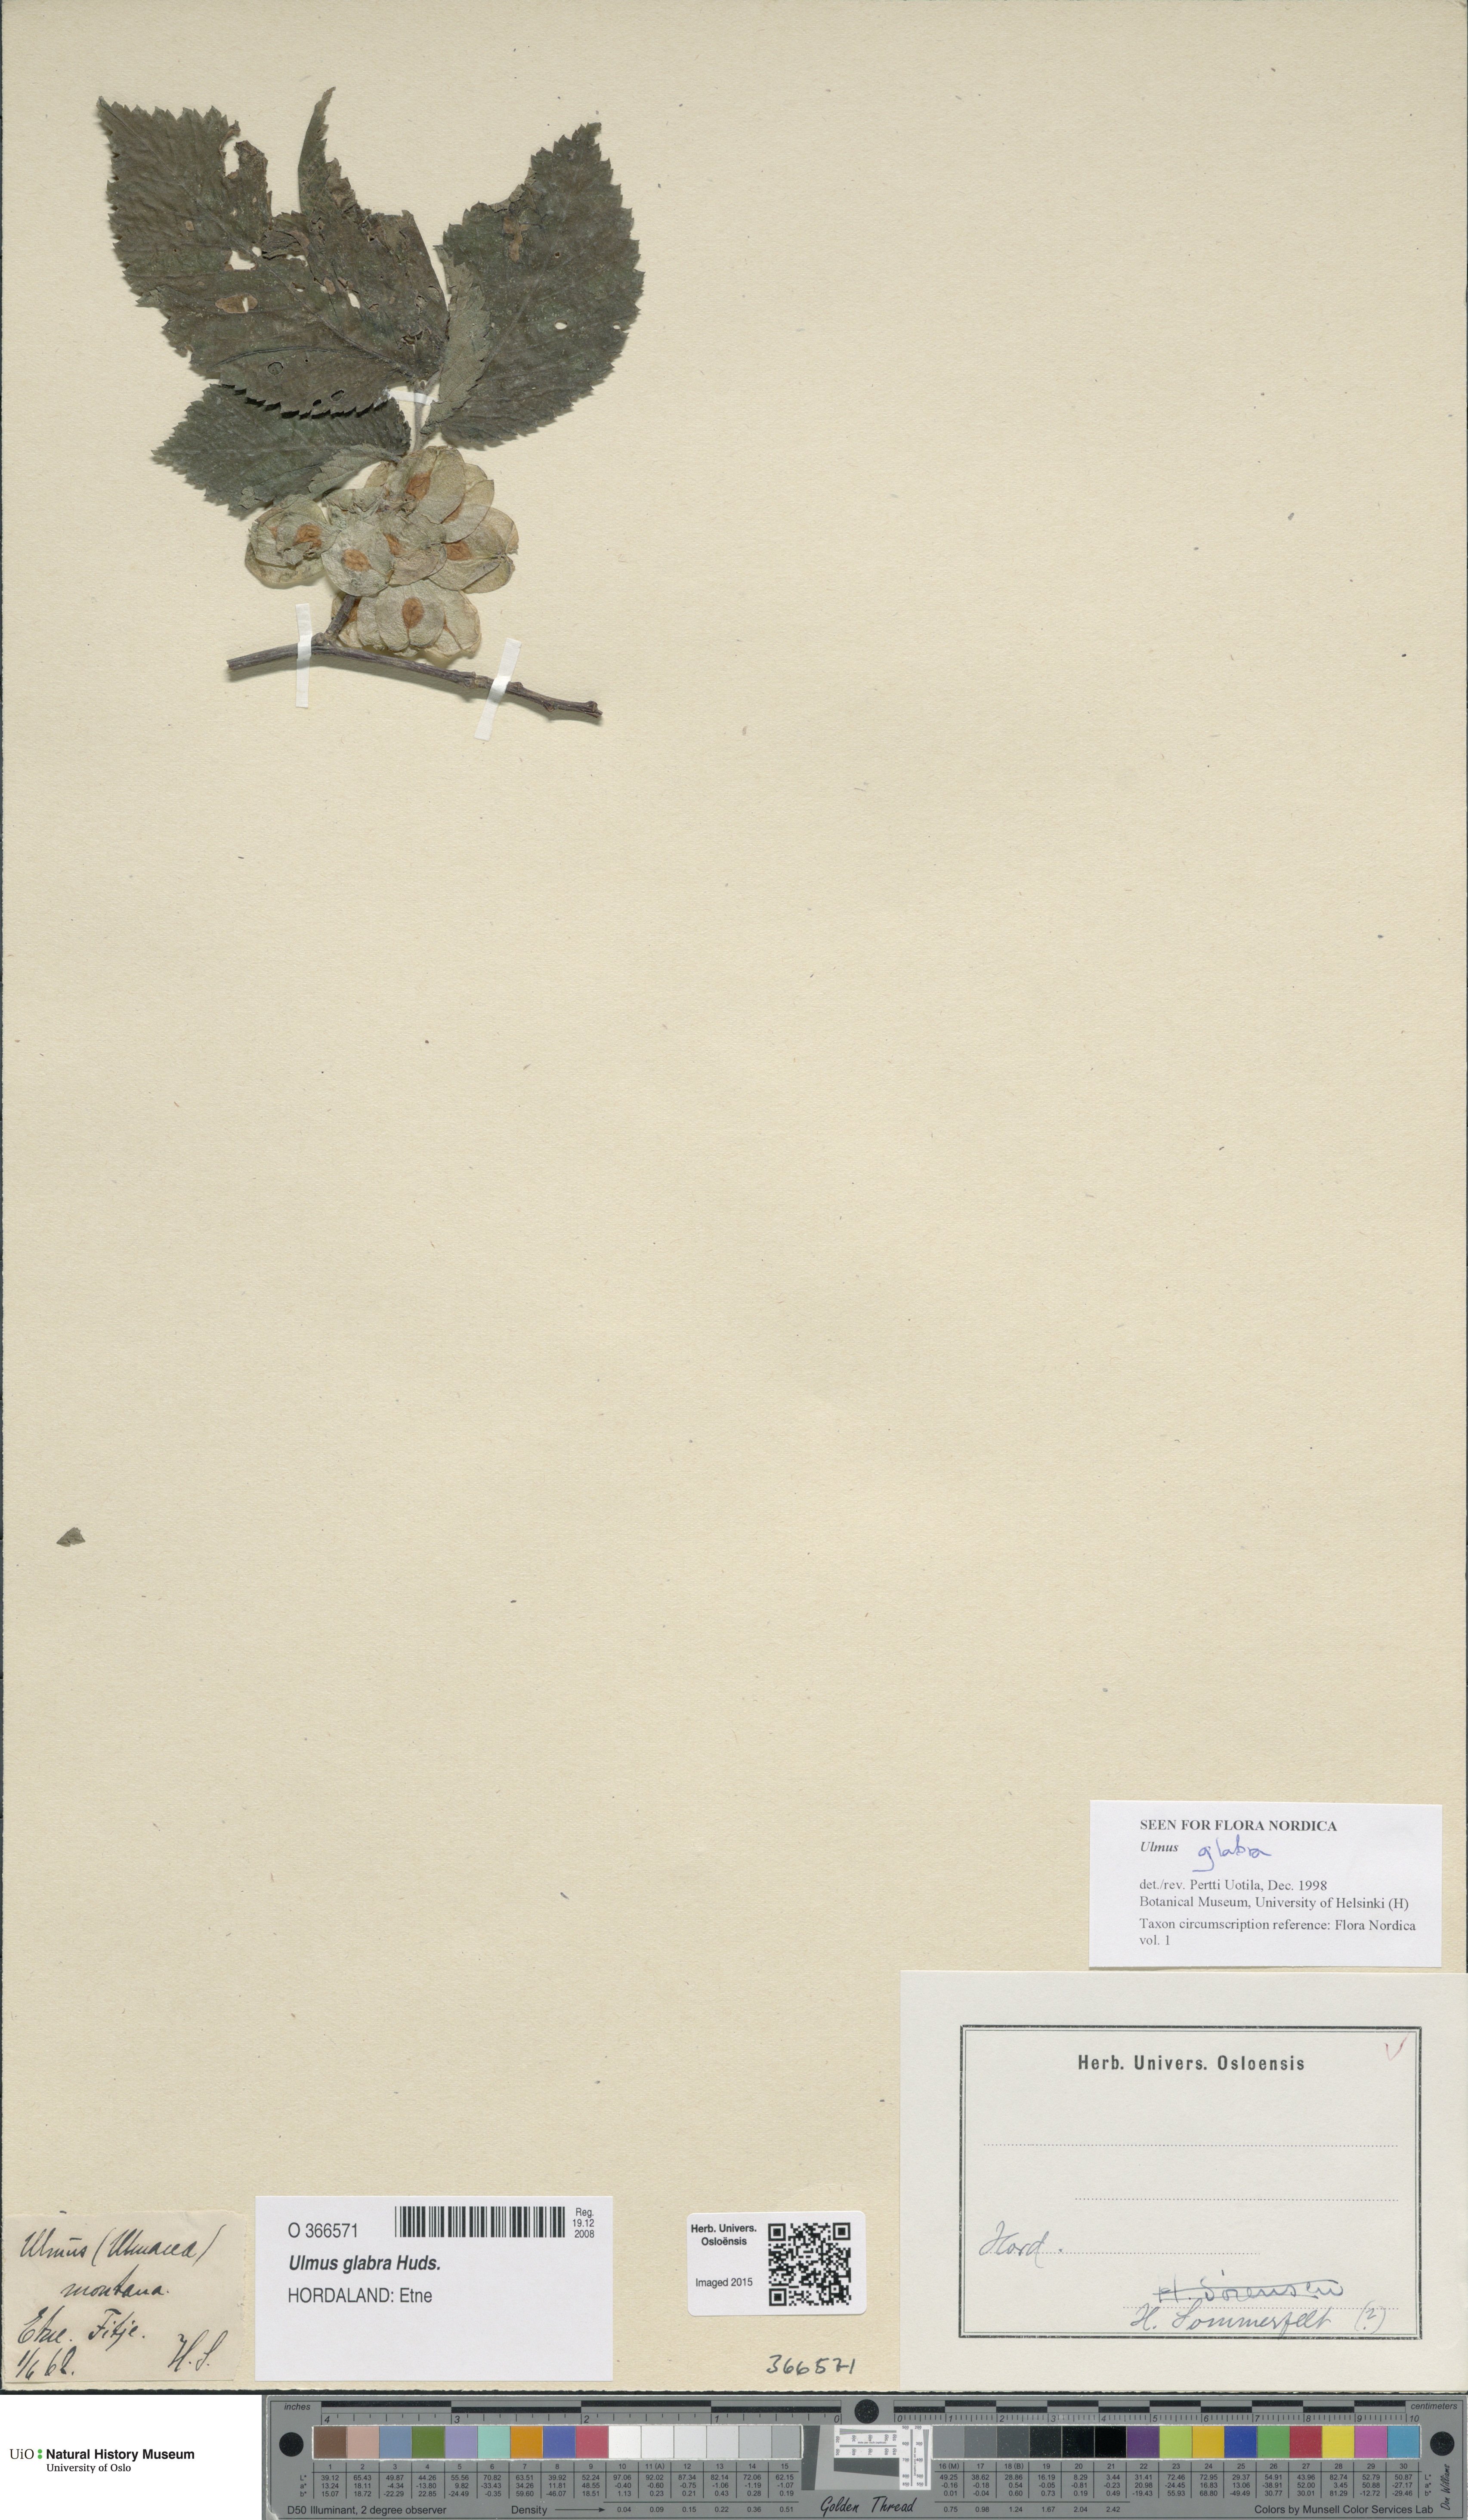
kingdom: Plantae
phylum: Tracheophyta
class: Magnoliopsida
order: Rosales
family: Ulmaceae
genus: Ulmus
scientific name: Ulmus glabra
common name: Wych elm
